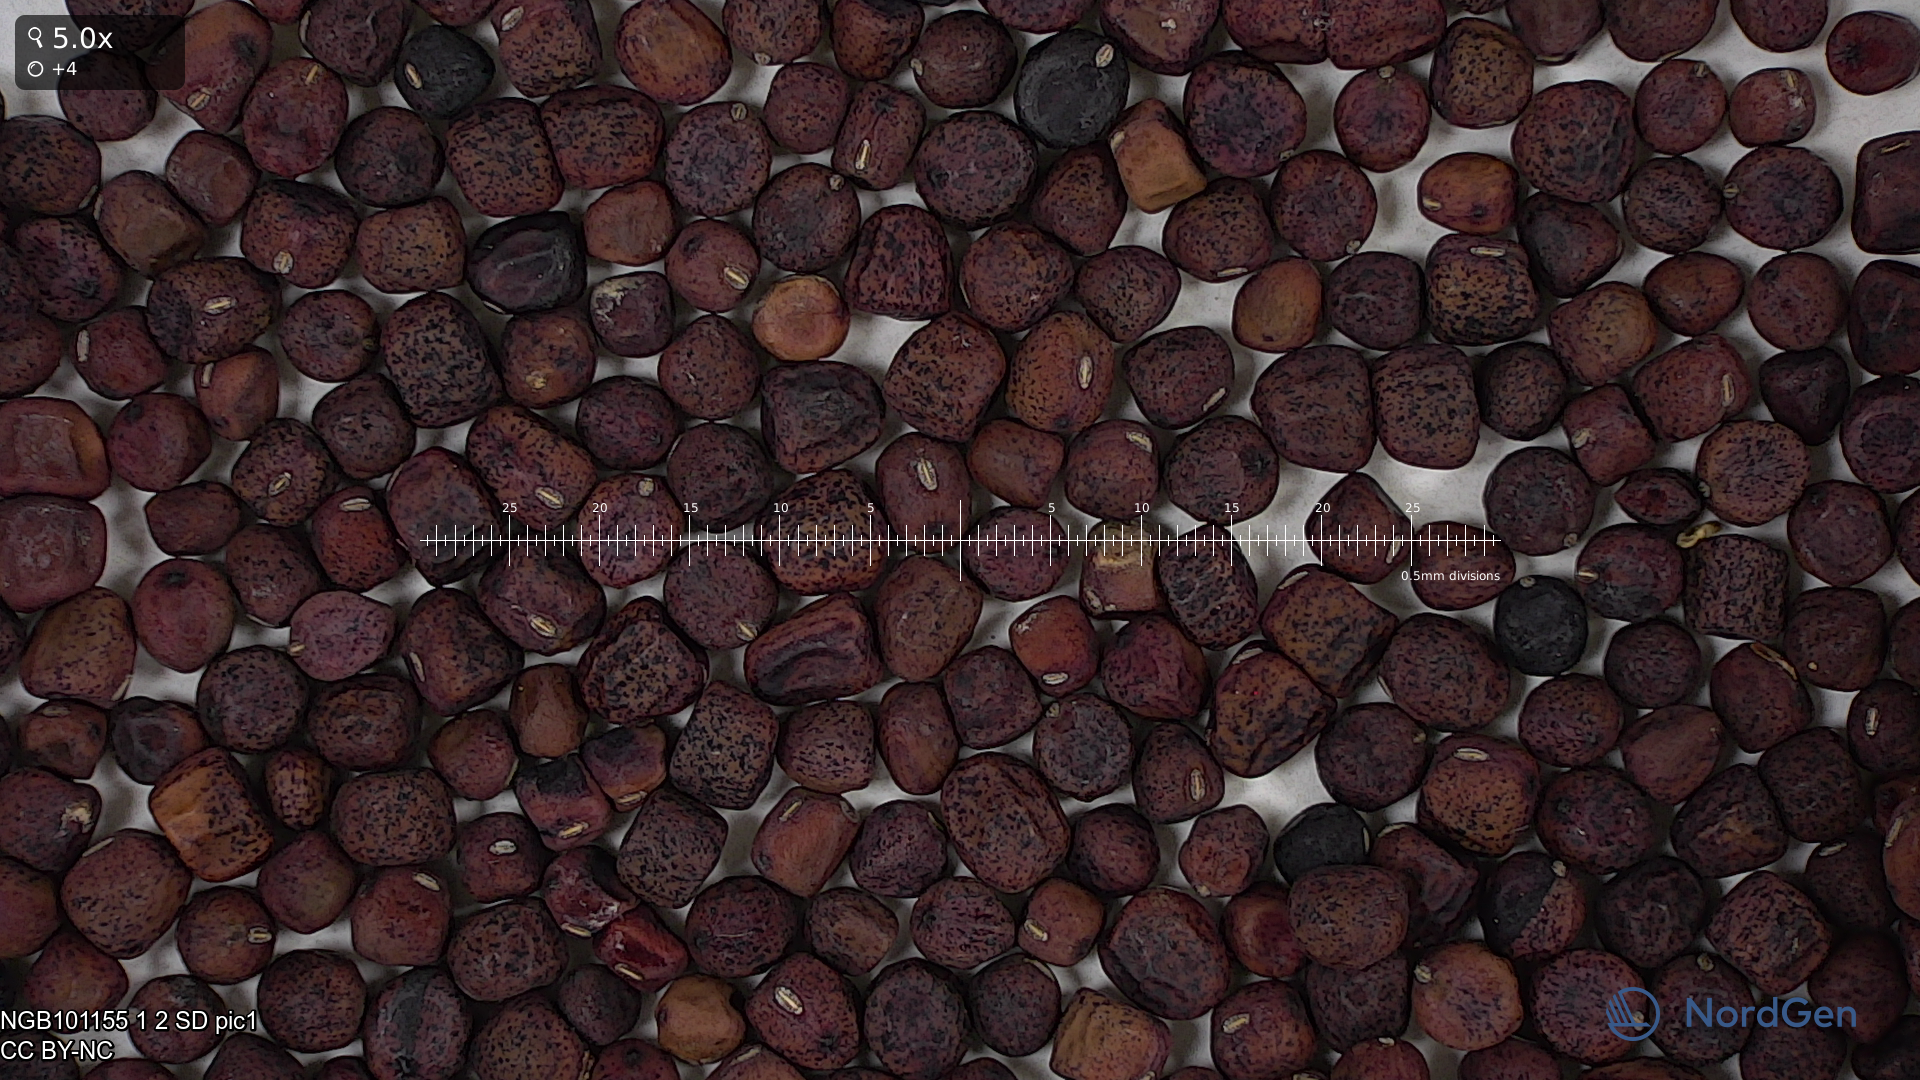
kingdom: Plantae
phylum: Tracheophyta
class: Magnoliopsida
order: Fabales
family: Fabaceae
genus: Lathyrus
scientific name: Lathyrus oleraceus
